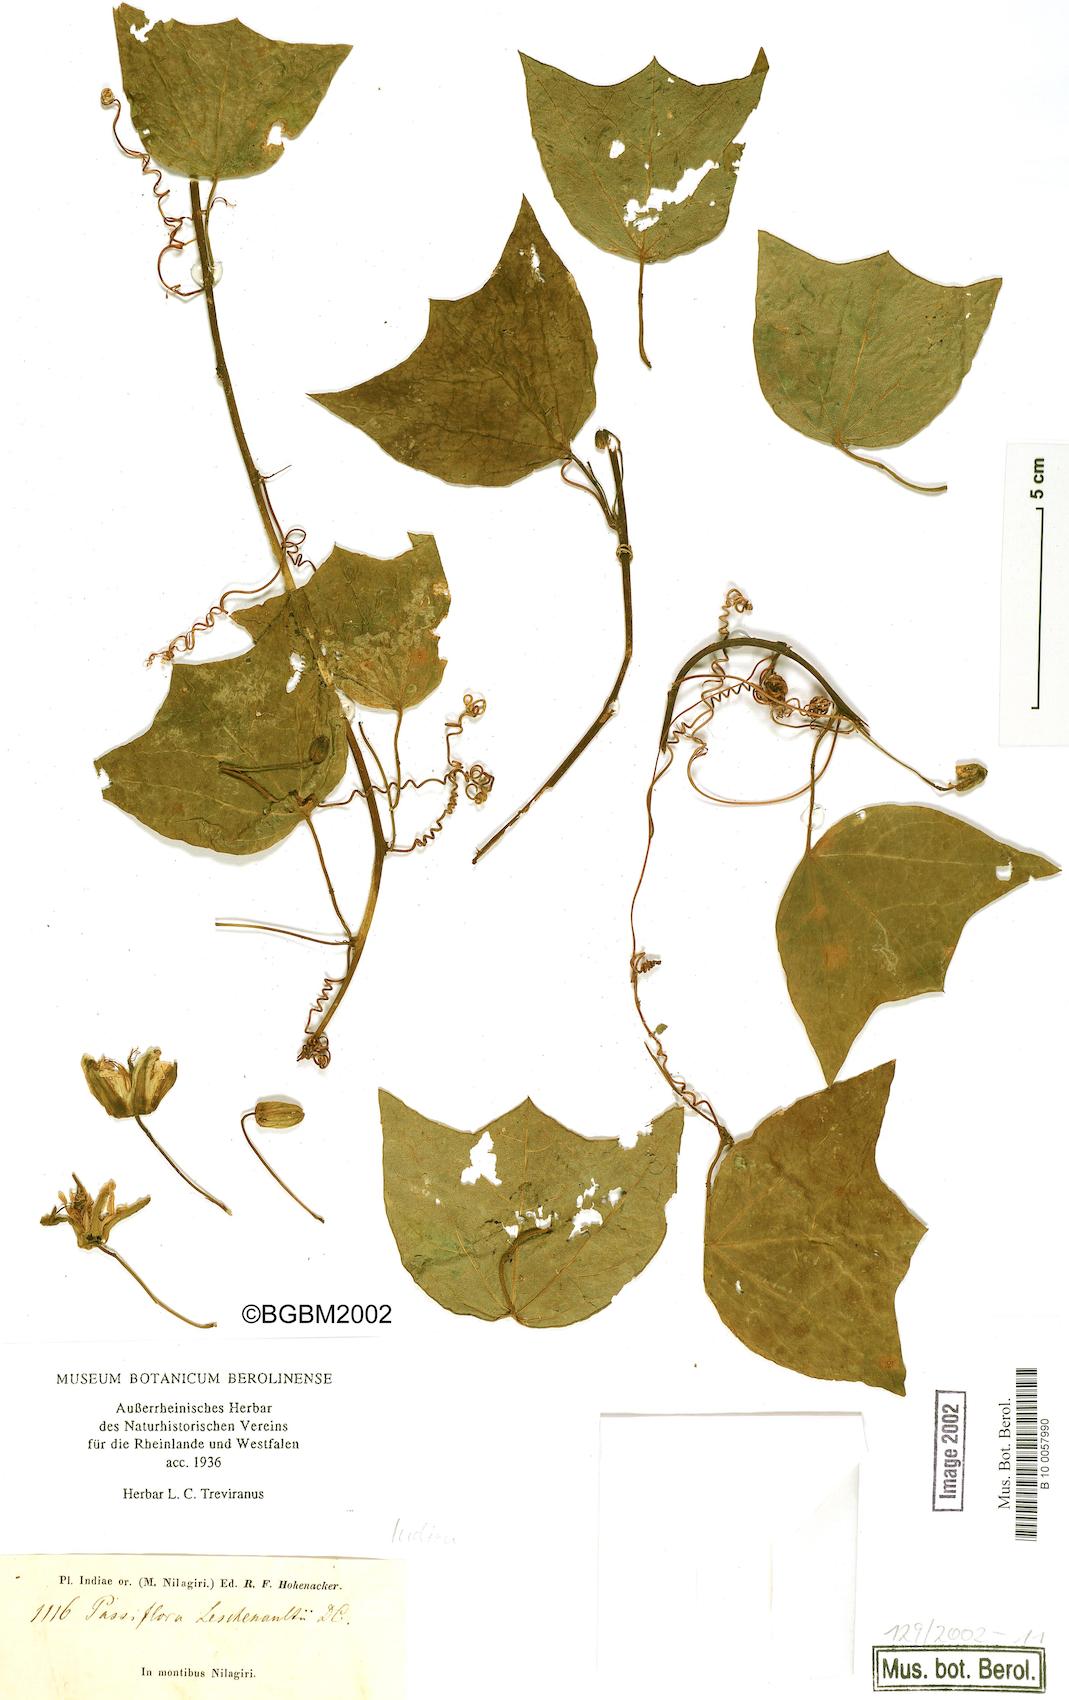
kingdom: Plantae
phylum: Tracheophyta
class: Magnoliopsida
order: Malpighiales
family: Passifloraceae
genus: Passiflora
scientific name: Passiflora leschenaultii
